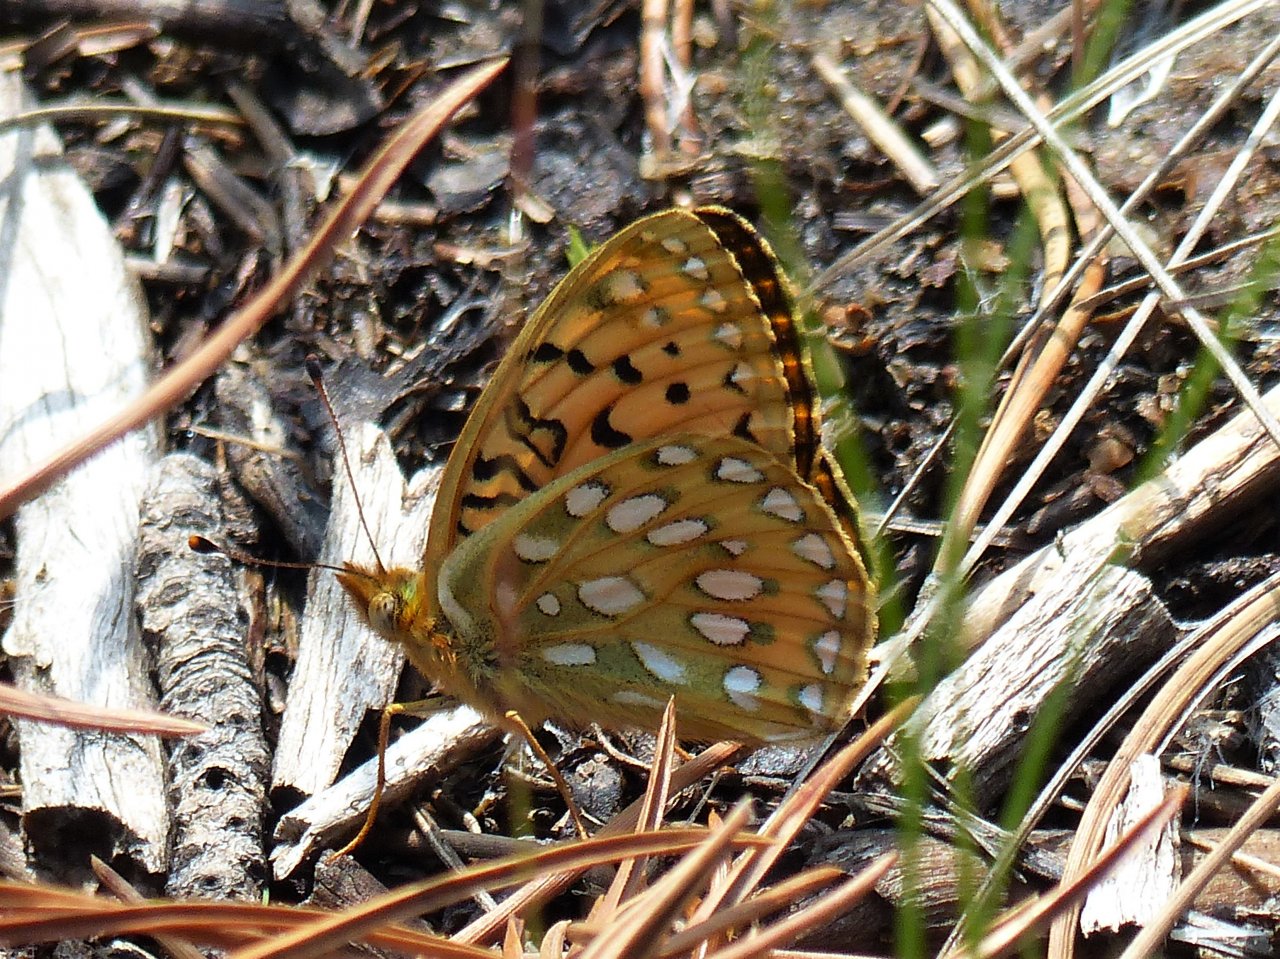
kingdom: Animalia
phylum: Arthropoda
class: Insecta
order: Lepidoptera
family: Nymphalidae
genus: Speyeria
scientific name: Speyeria mormonia
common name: Mormon Fritillary
